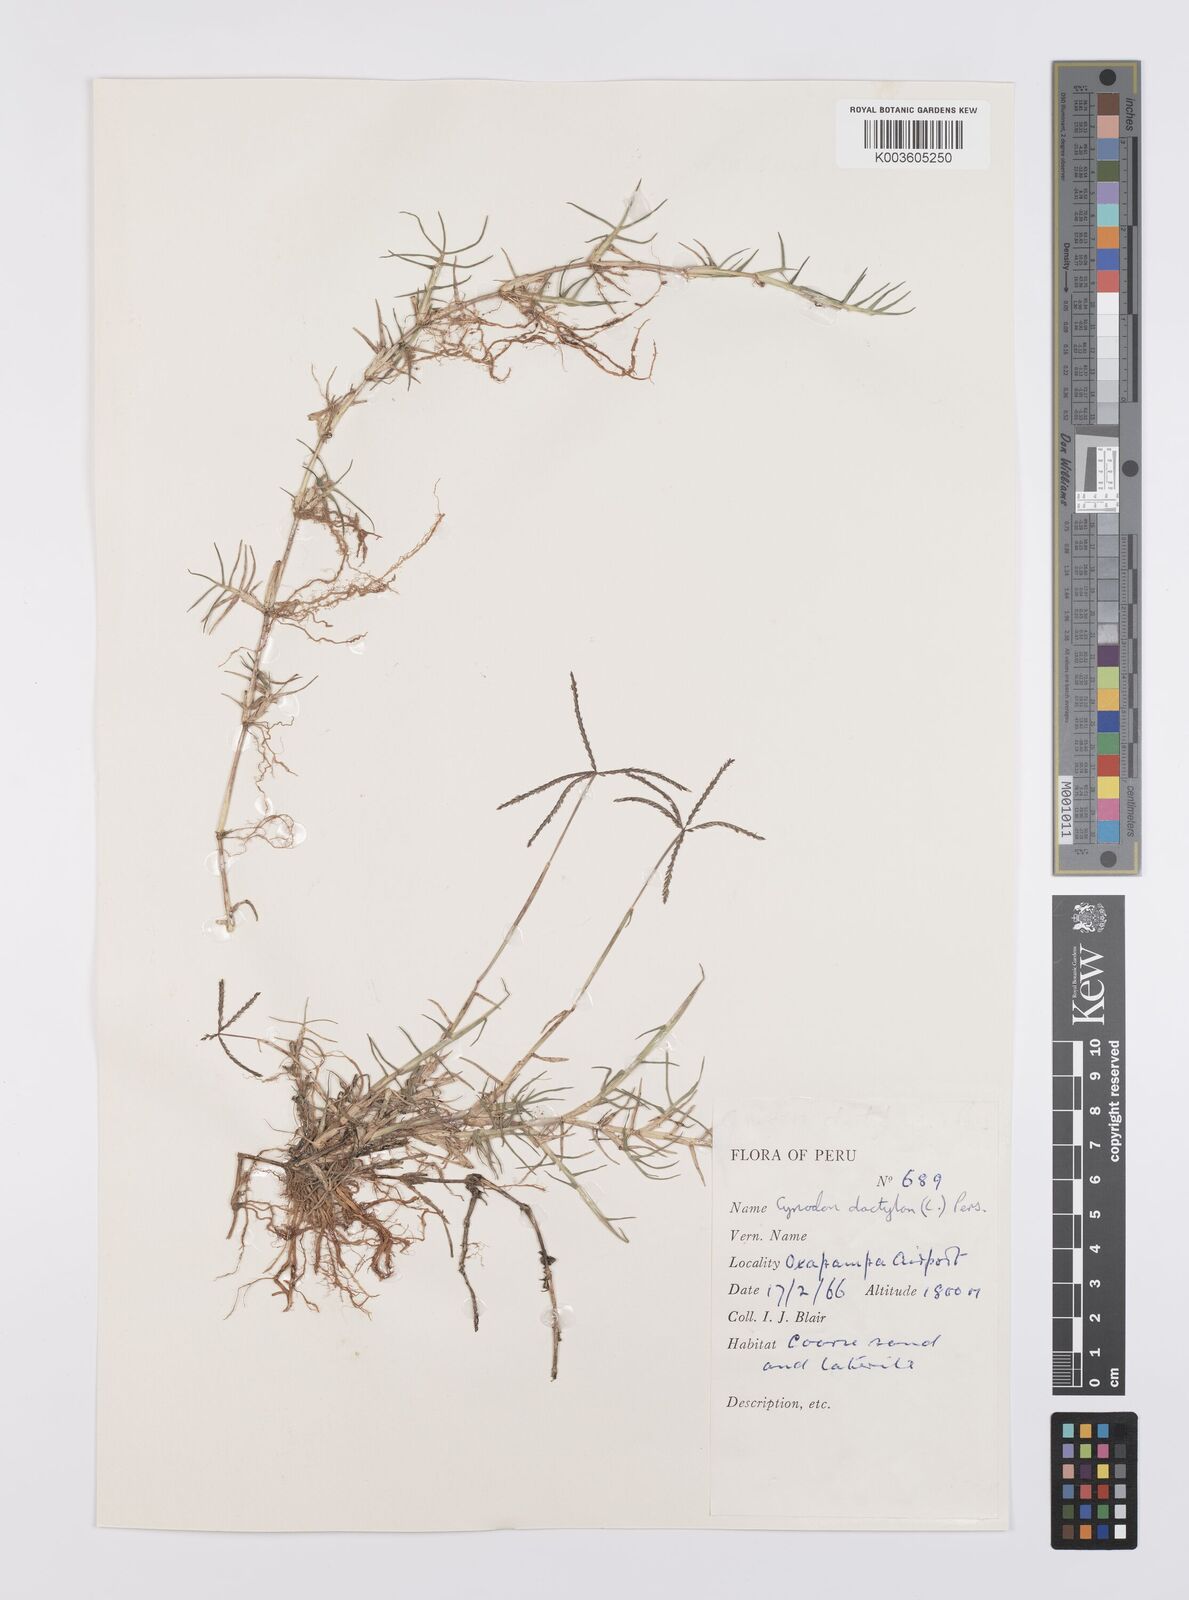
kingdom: Plantae
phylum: Tracheophyta
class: Liliopsida
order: Poales
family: Poaceae
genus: Cynodon
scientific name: Cynodon dactylon
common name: Bermuda grass
